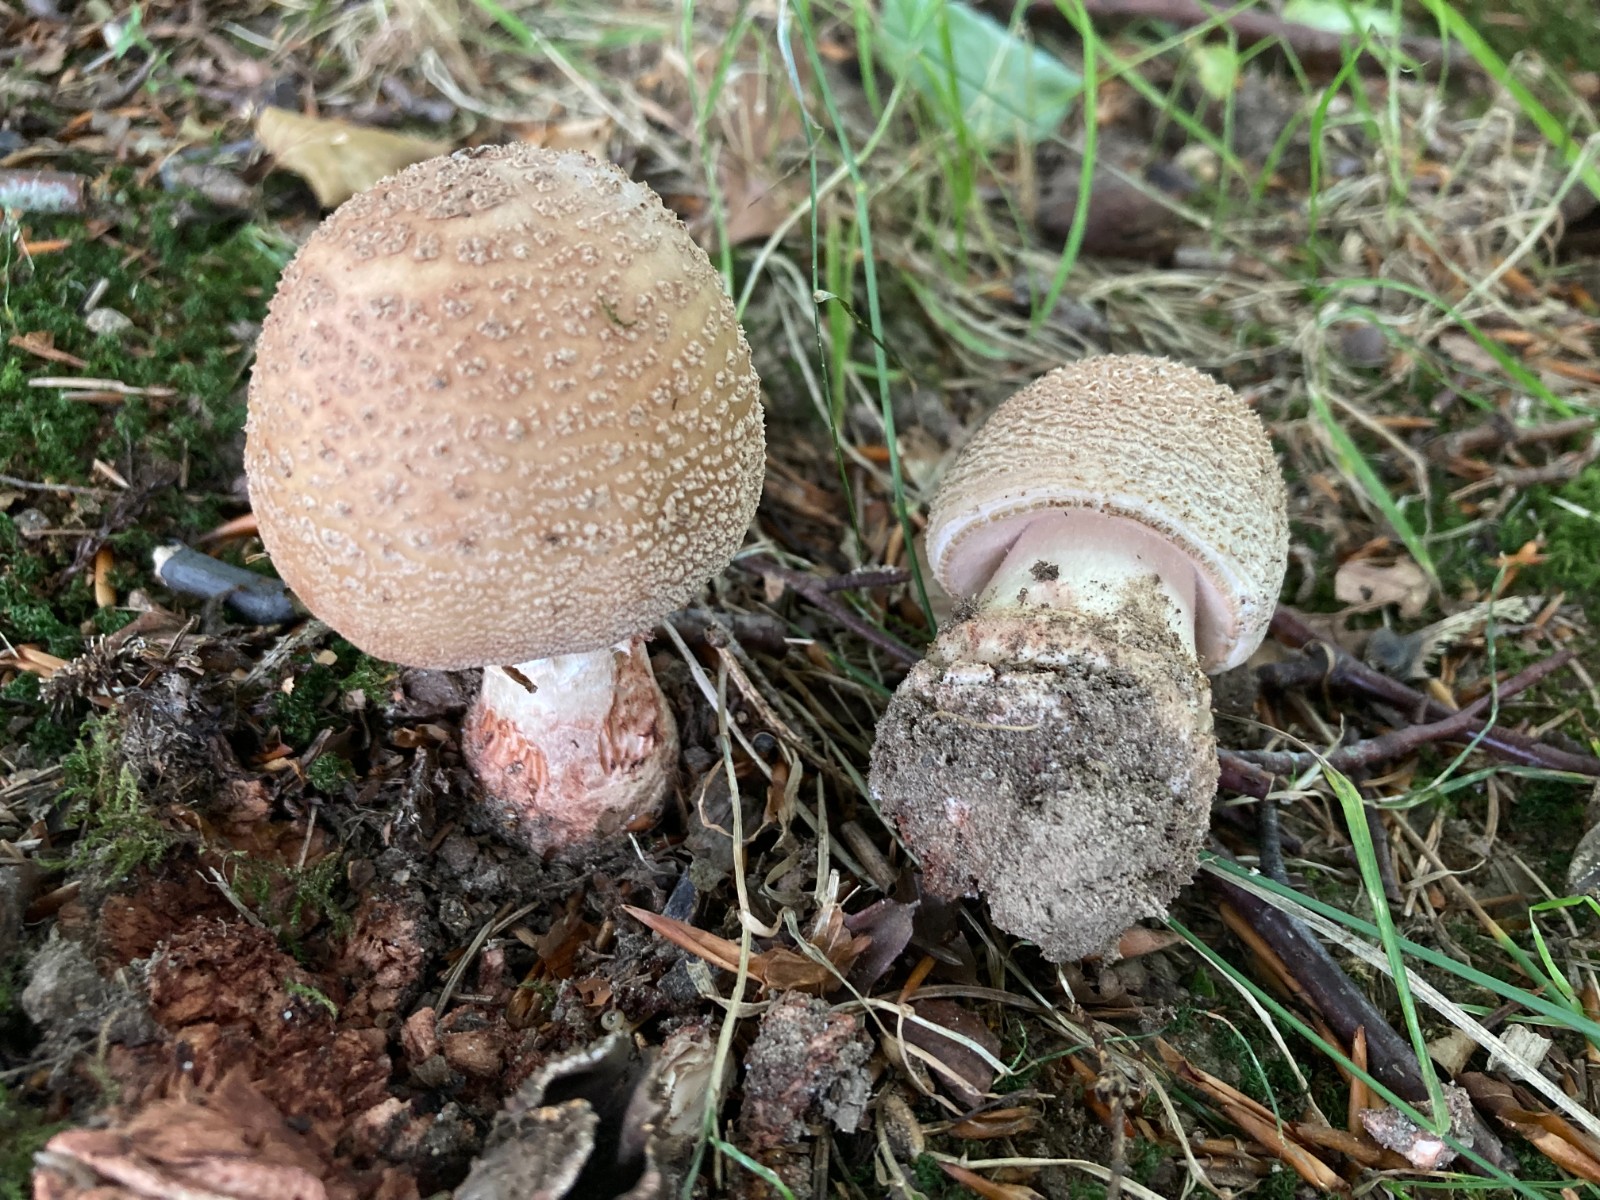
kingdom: Fungi
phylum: Basidiomycota
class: Agaricomycetes
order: Agaricales
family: Amanitaceae
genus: Amanita
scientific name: Amanita rubescens
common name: rødmende fluesvamp
